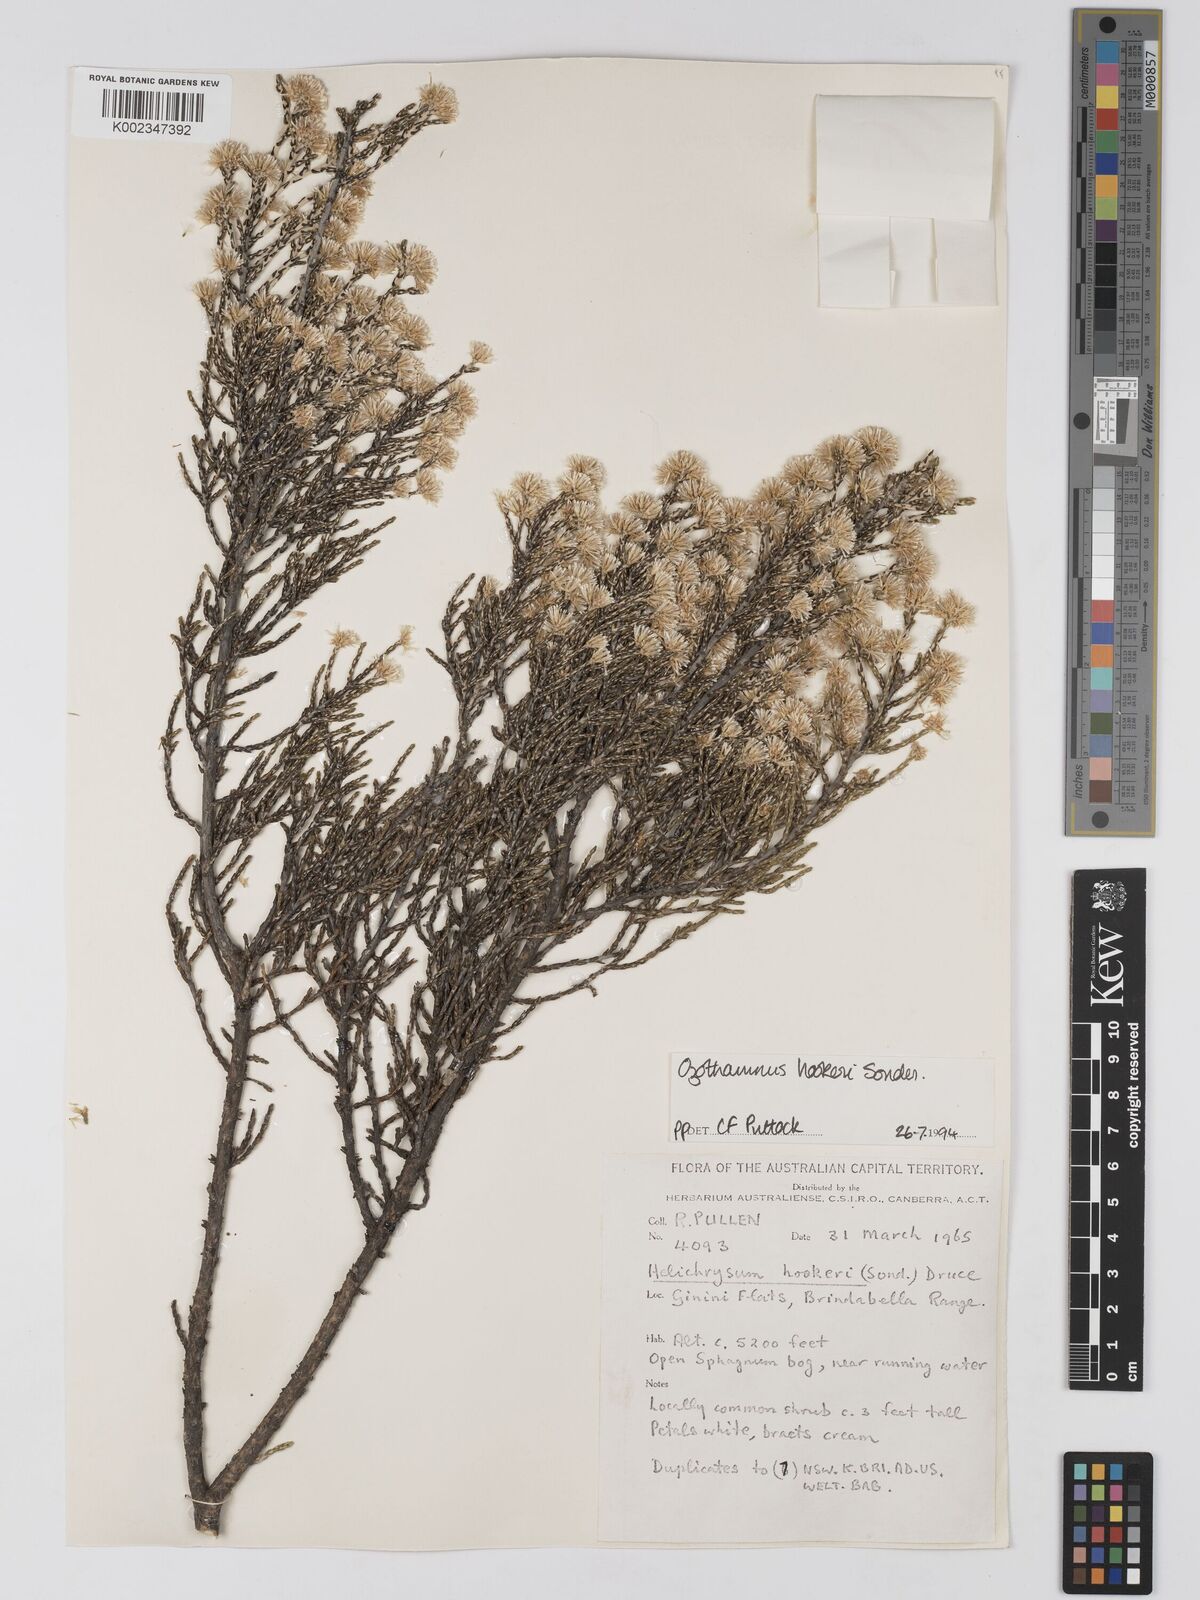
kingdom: Plantae
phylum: Tracheophyta
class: Magnoliopsida
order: Asterales
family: Asteraceae
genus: Ozothamnus
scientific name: Ozothamnus hookeri
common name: Kerosene-bush
